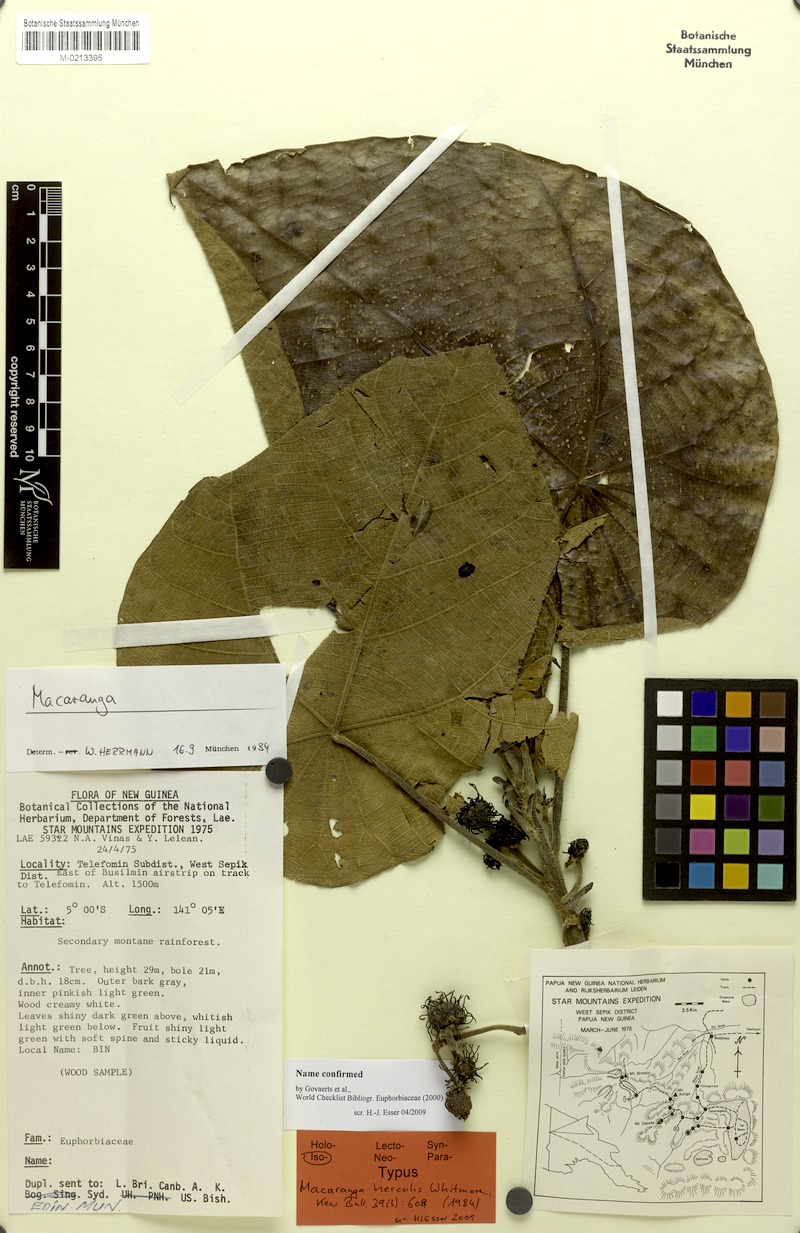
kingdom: Plantae
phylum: Tracheophyta
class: Magnoliopsida
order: Malpighiales
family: Euphorbiaceae
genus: Macaranga
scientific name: Macaranga herculis
